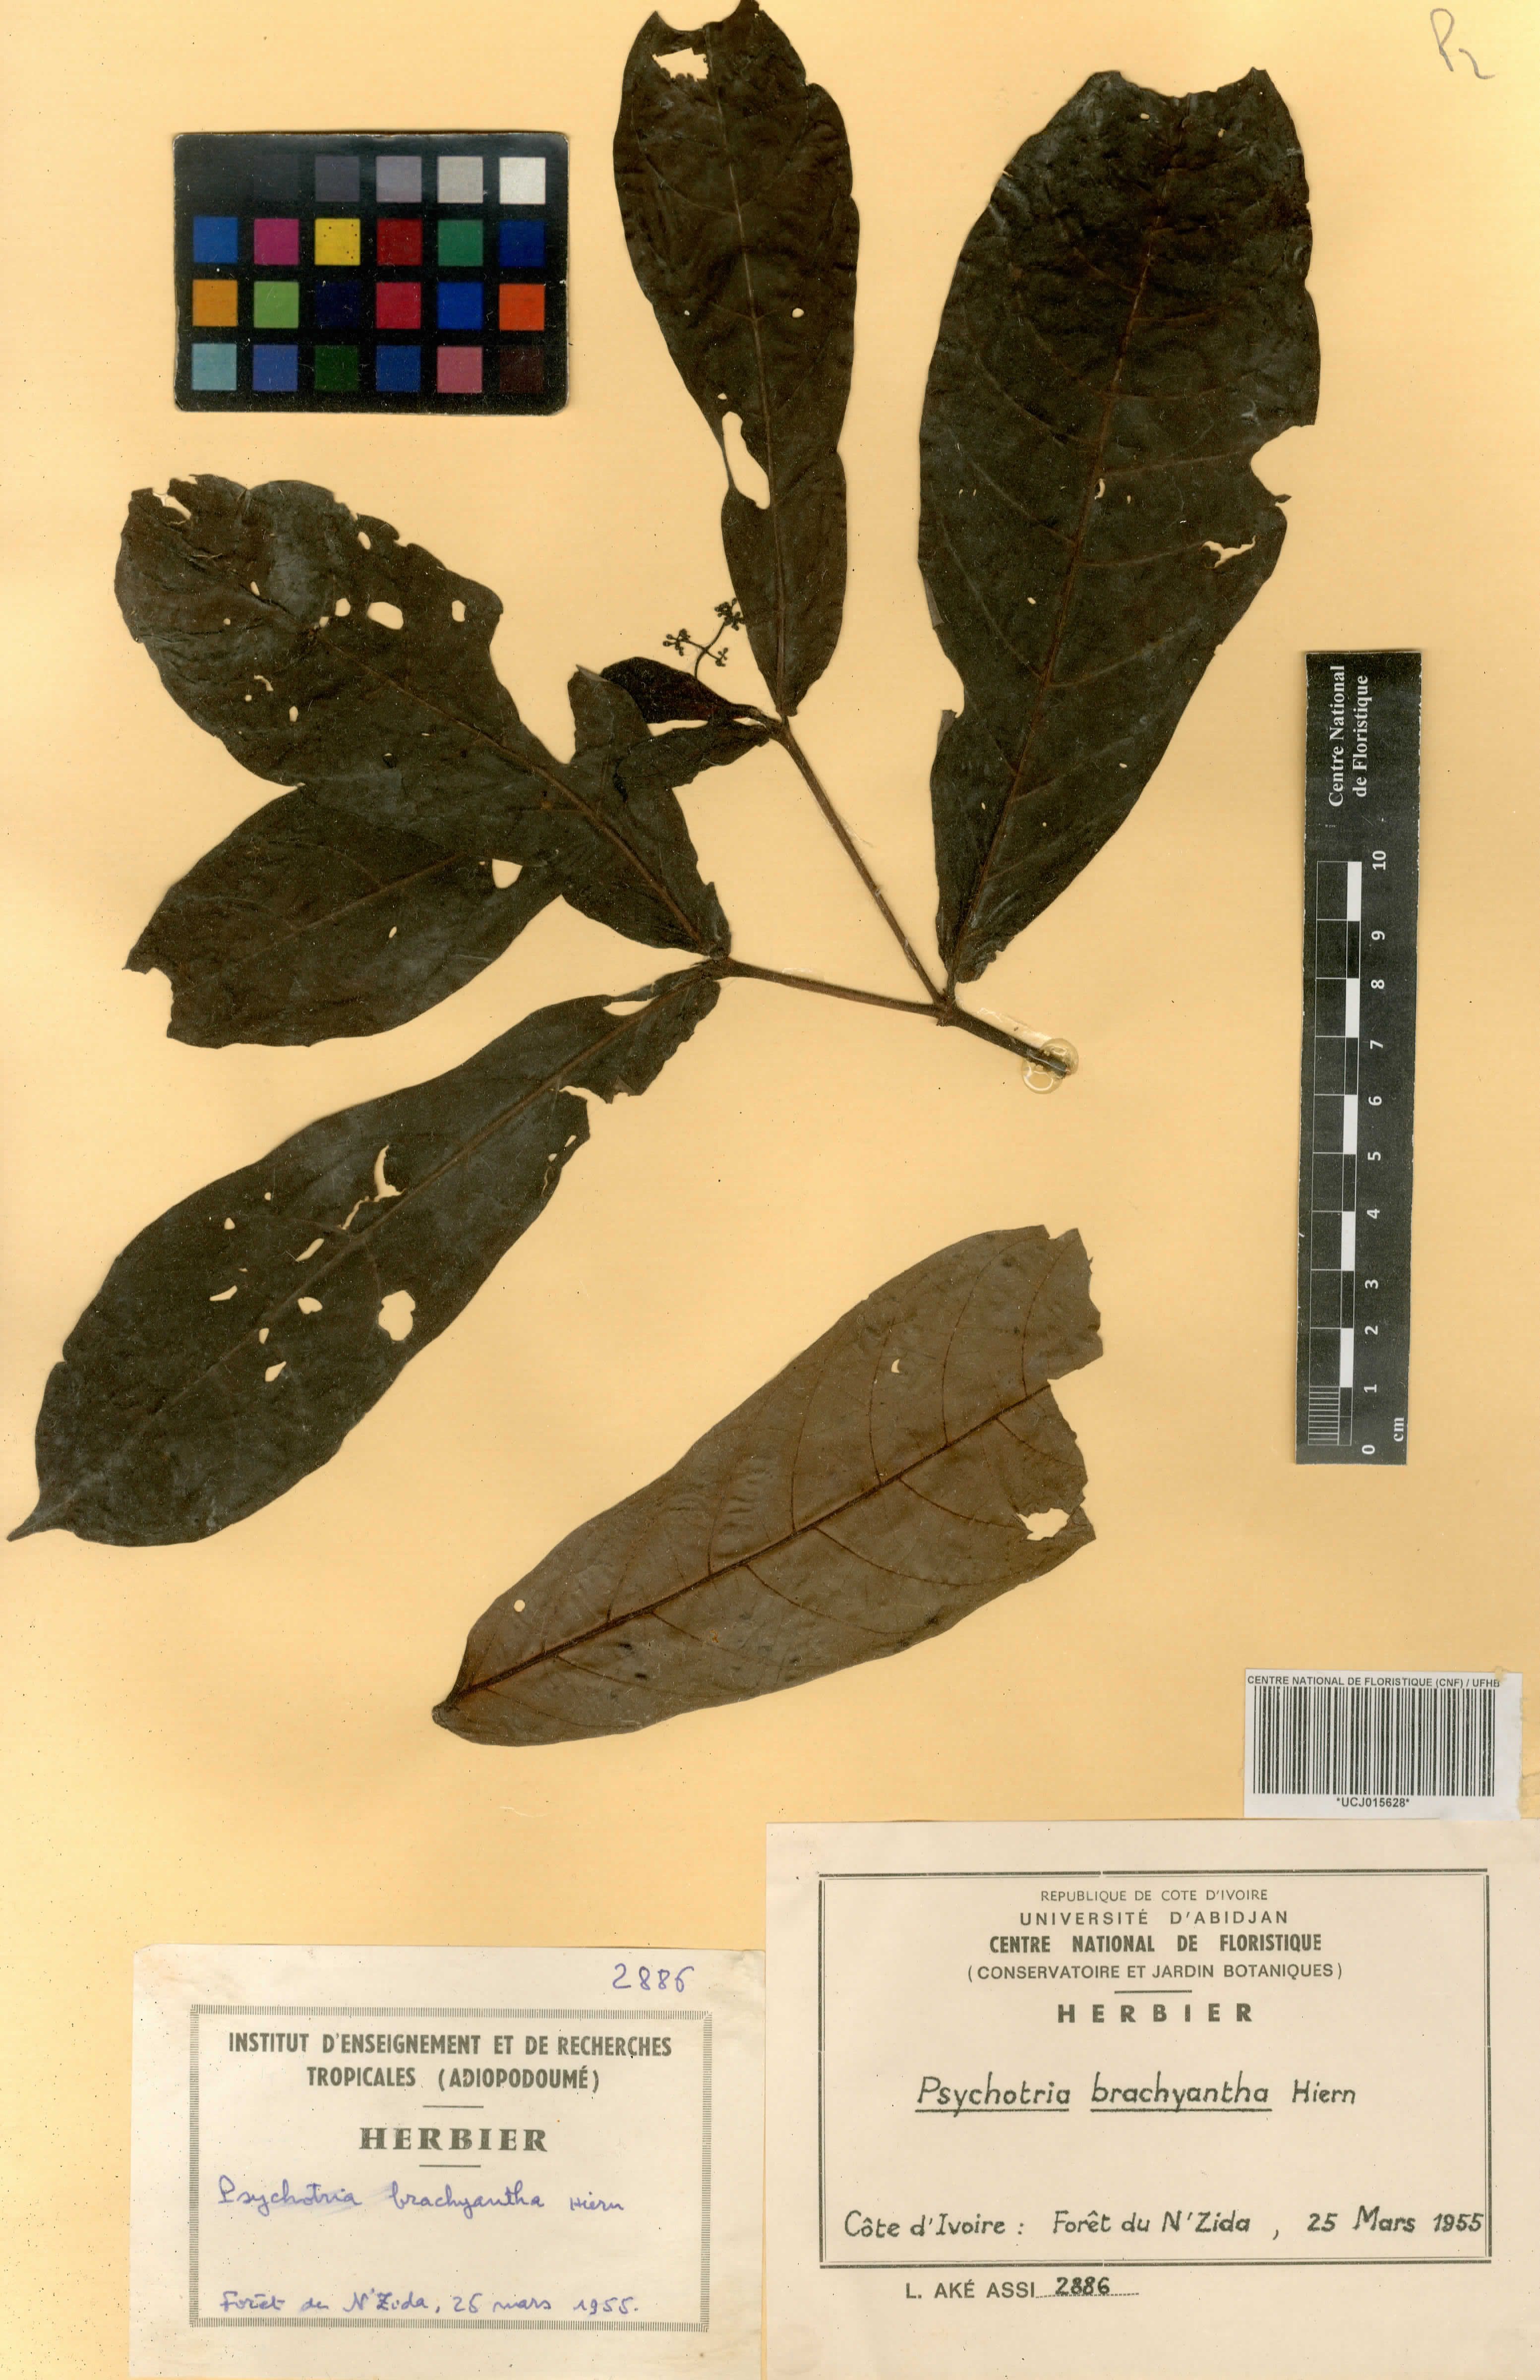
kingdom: Plantae
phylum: Tracheophyta
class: Magnoliopsida
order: Gentianales
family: Rubiaceae
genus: Psychotria
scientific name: Psychotria brachyantha
